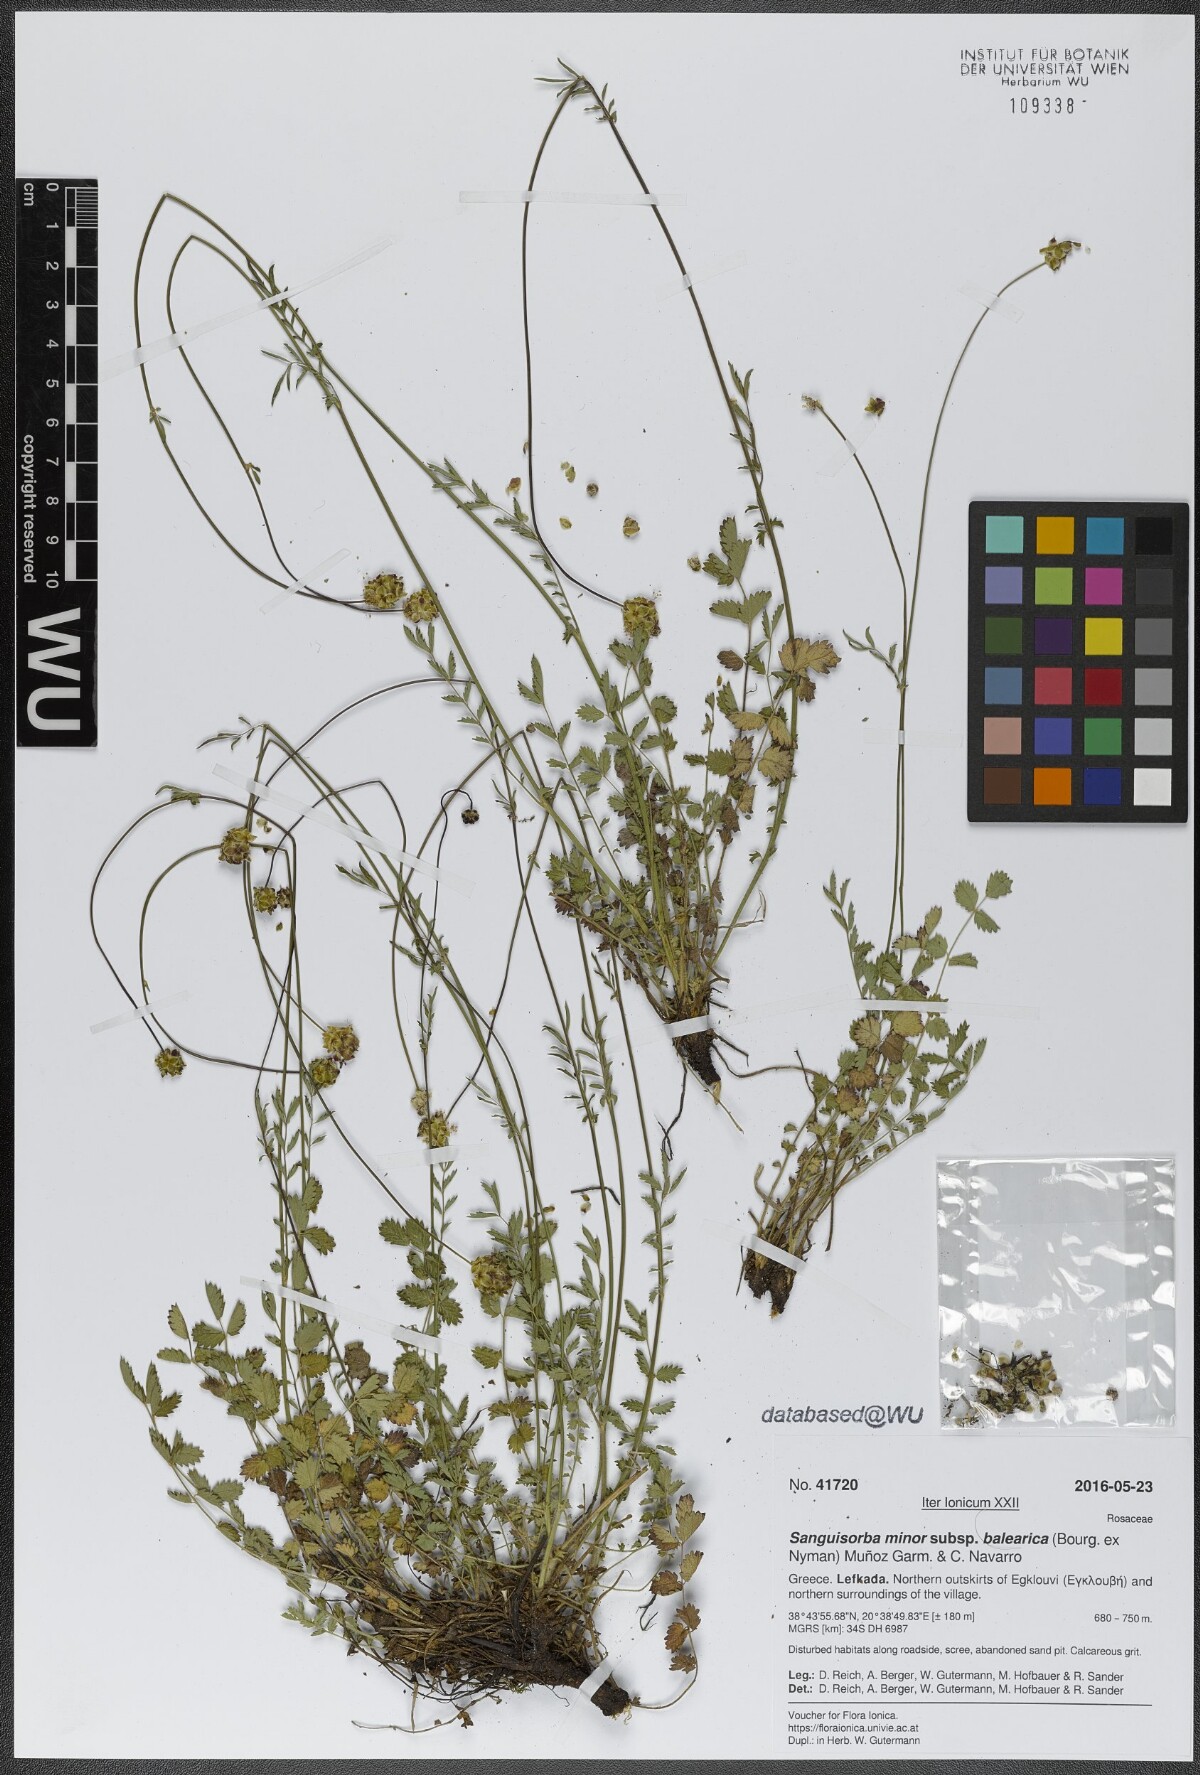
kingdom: Plantae
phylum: Tracheophyta
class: Magnoliopsida
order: Rosales
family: Rosaceae
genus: Poterium
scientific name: Poterium sanguisorba
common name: Salad burnet
